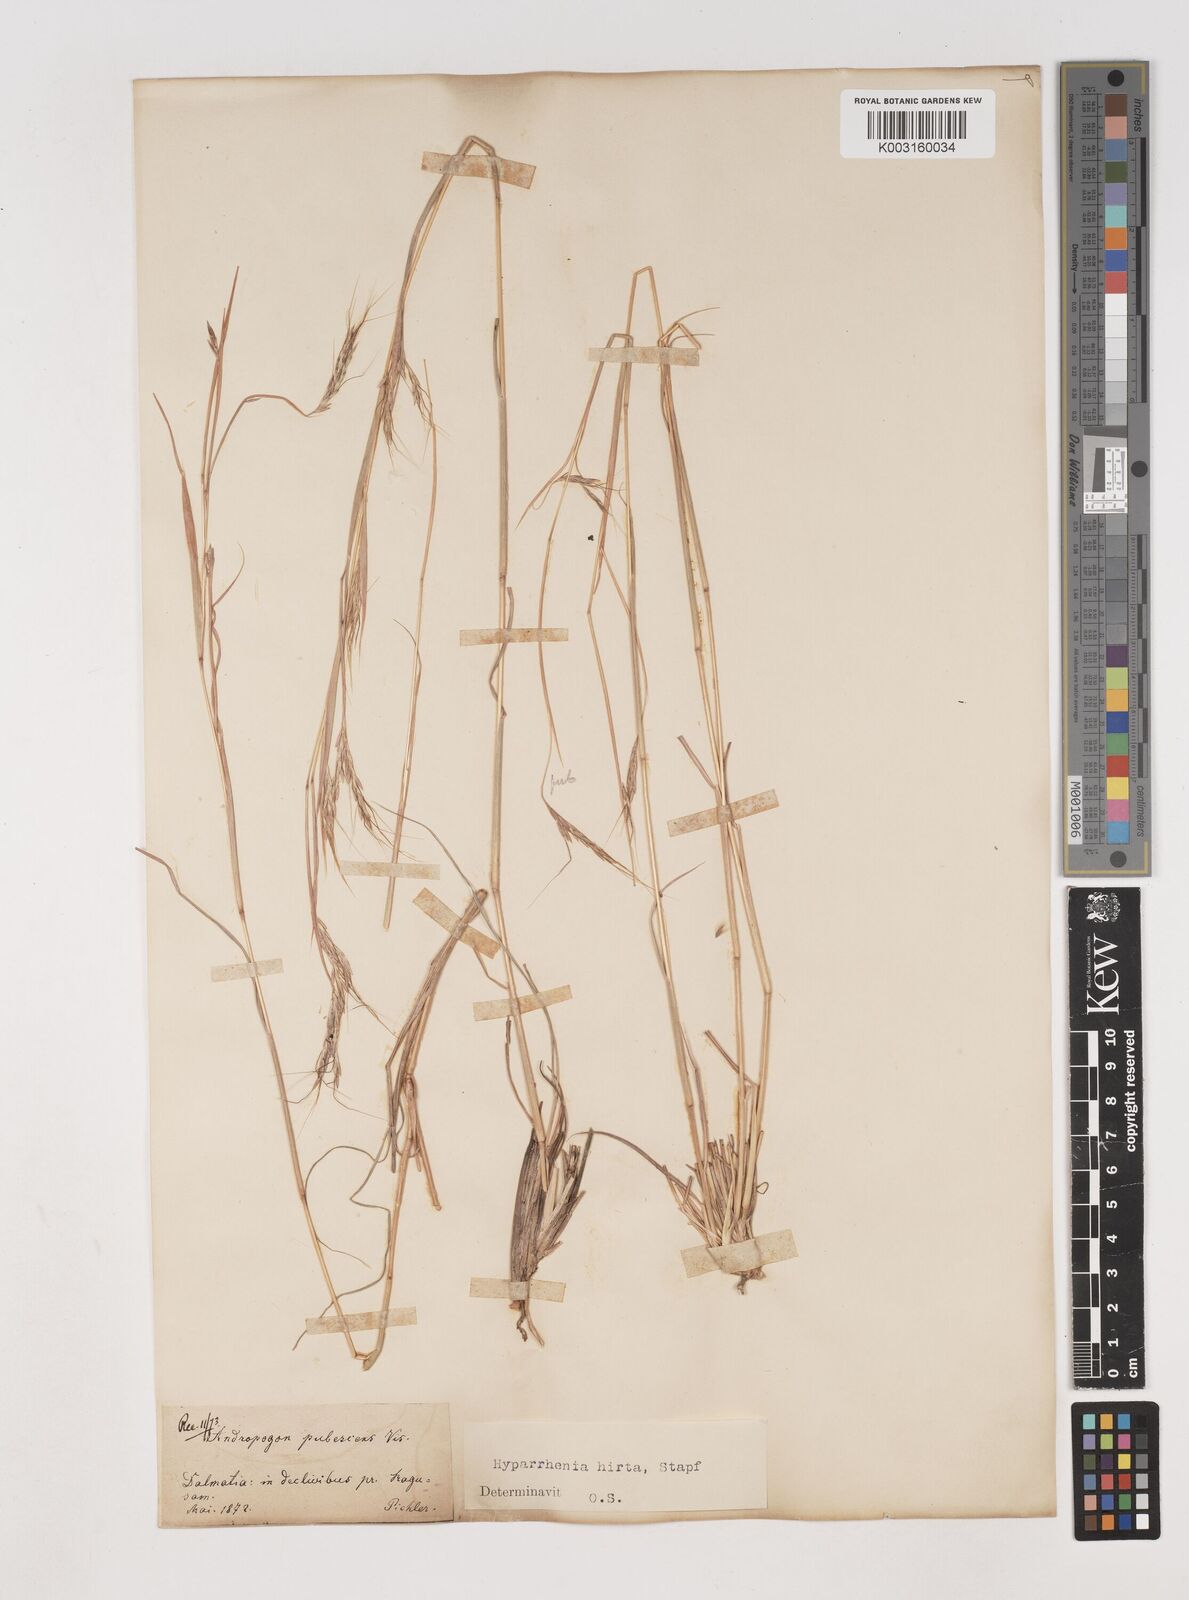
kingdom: Plantae
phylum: Tracheophyta
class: Liliopsida
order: Poales
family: Poaceae
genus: Hyparrhenia
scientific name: Hyparrhenia hirta
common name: Thatching grass
